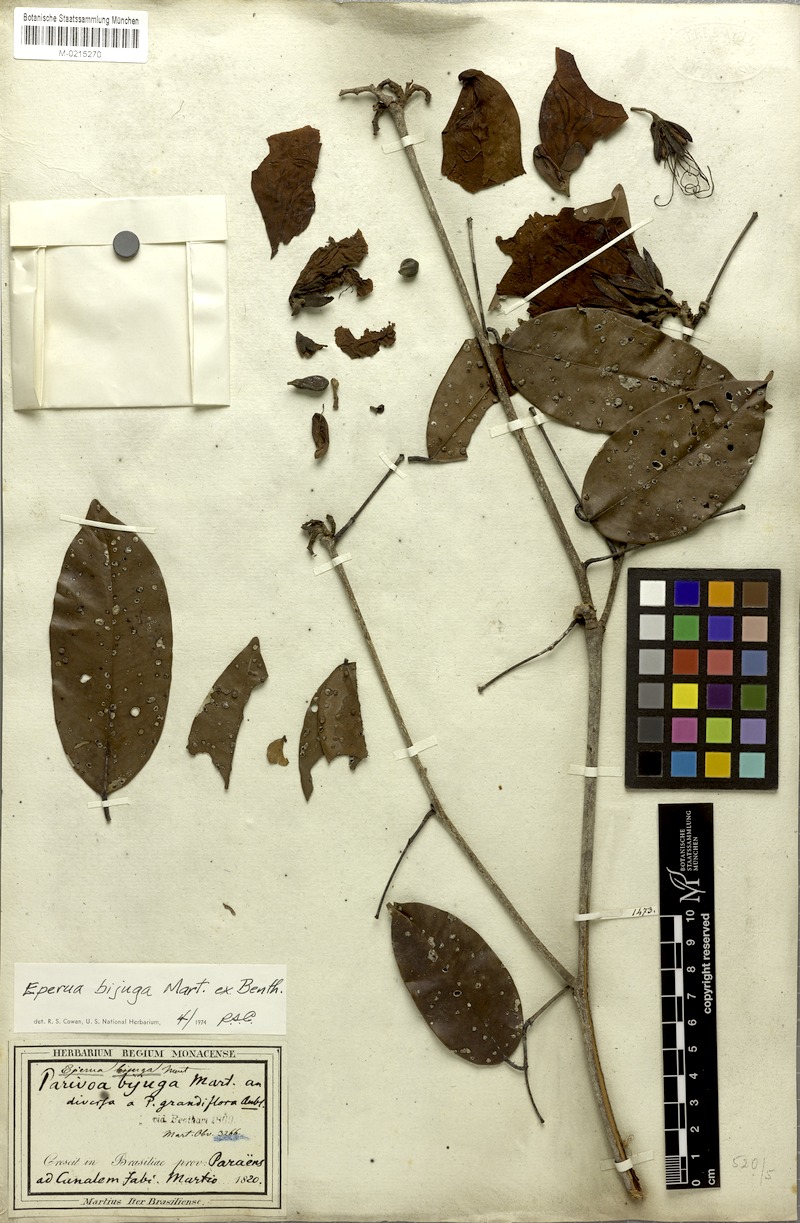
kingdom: Plantae
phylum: Tracheophyta
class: Magnoliopsida
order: Fabales
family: Fabaceae
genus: Eperua
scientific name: Eperua bijuga
